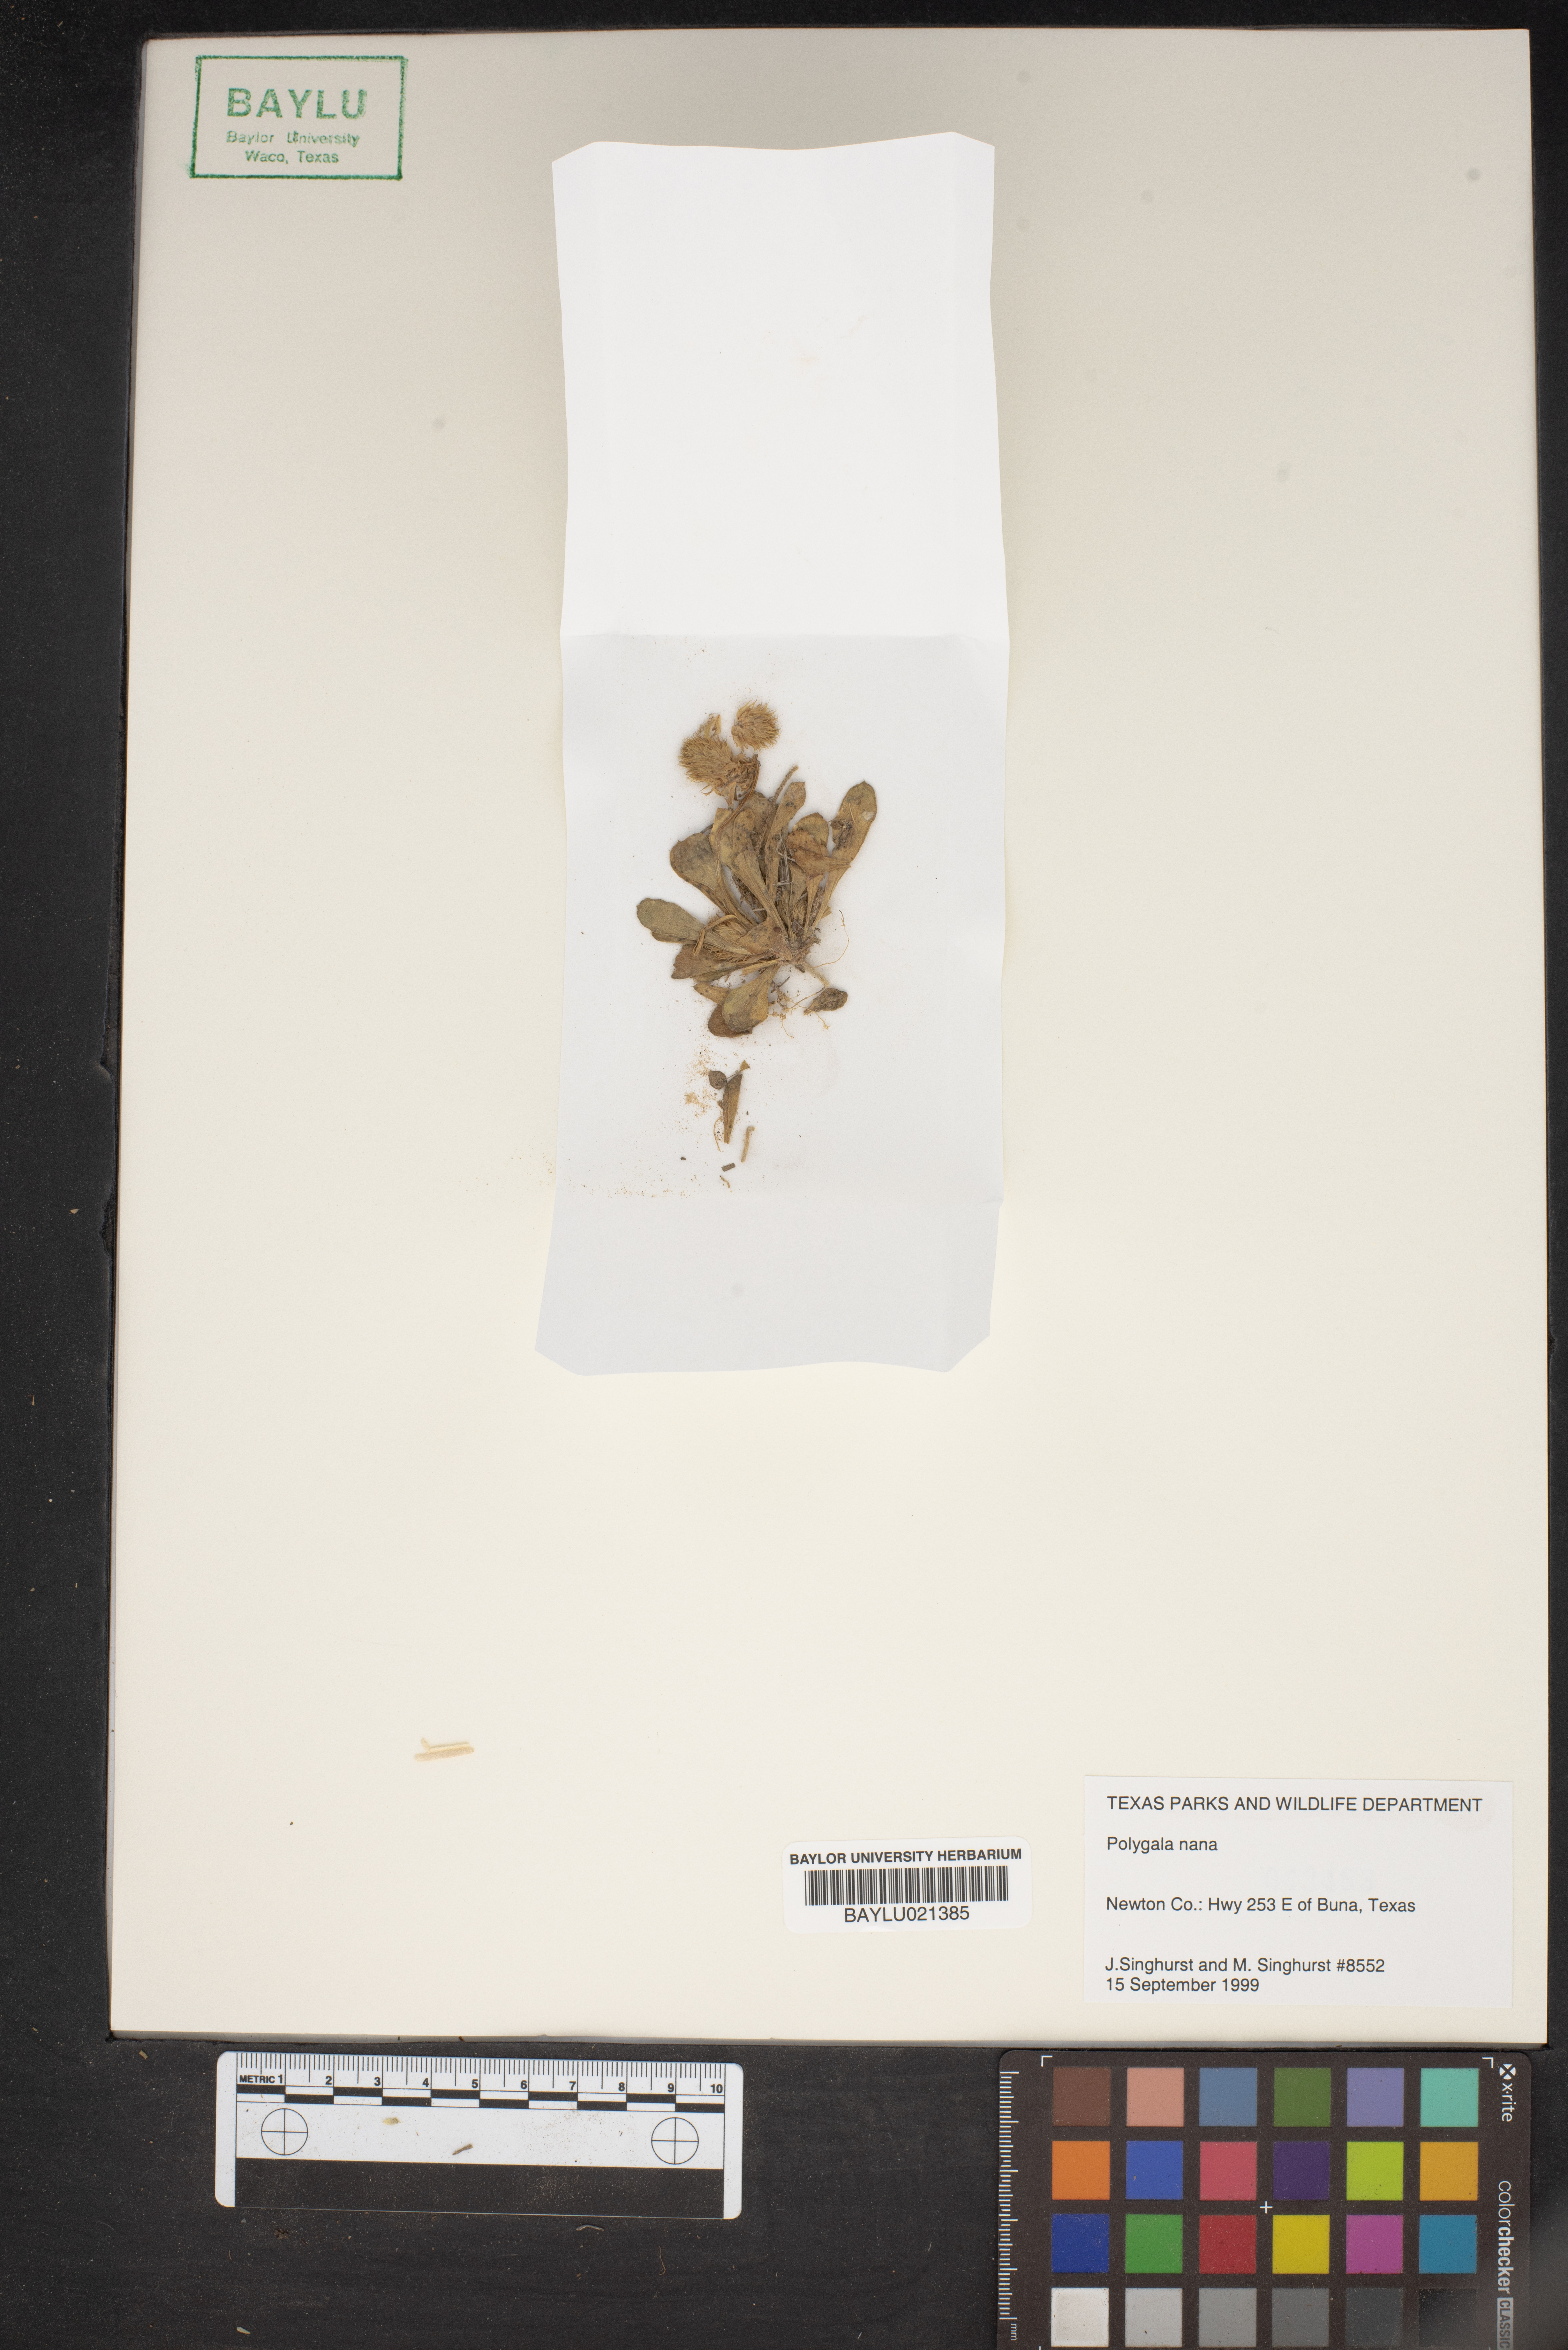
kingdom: Plantae
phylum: Tracheophyta
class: Magnoliopsida
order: Fabales
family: Polygalaceae
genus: Polygala
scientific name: Polygala nana
